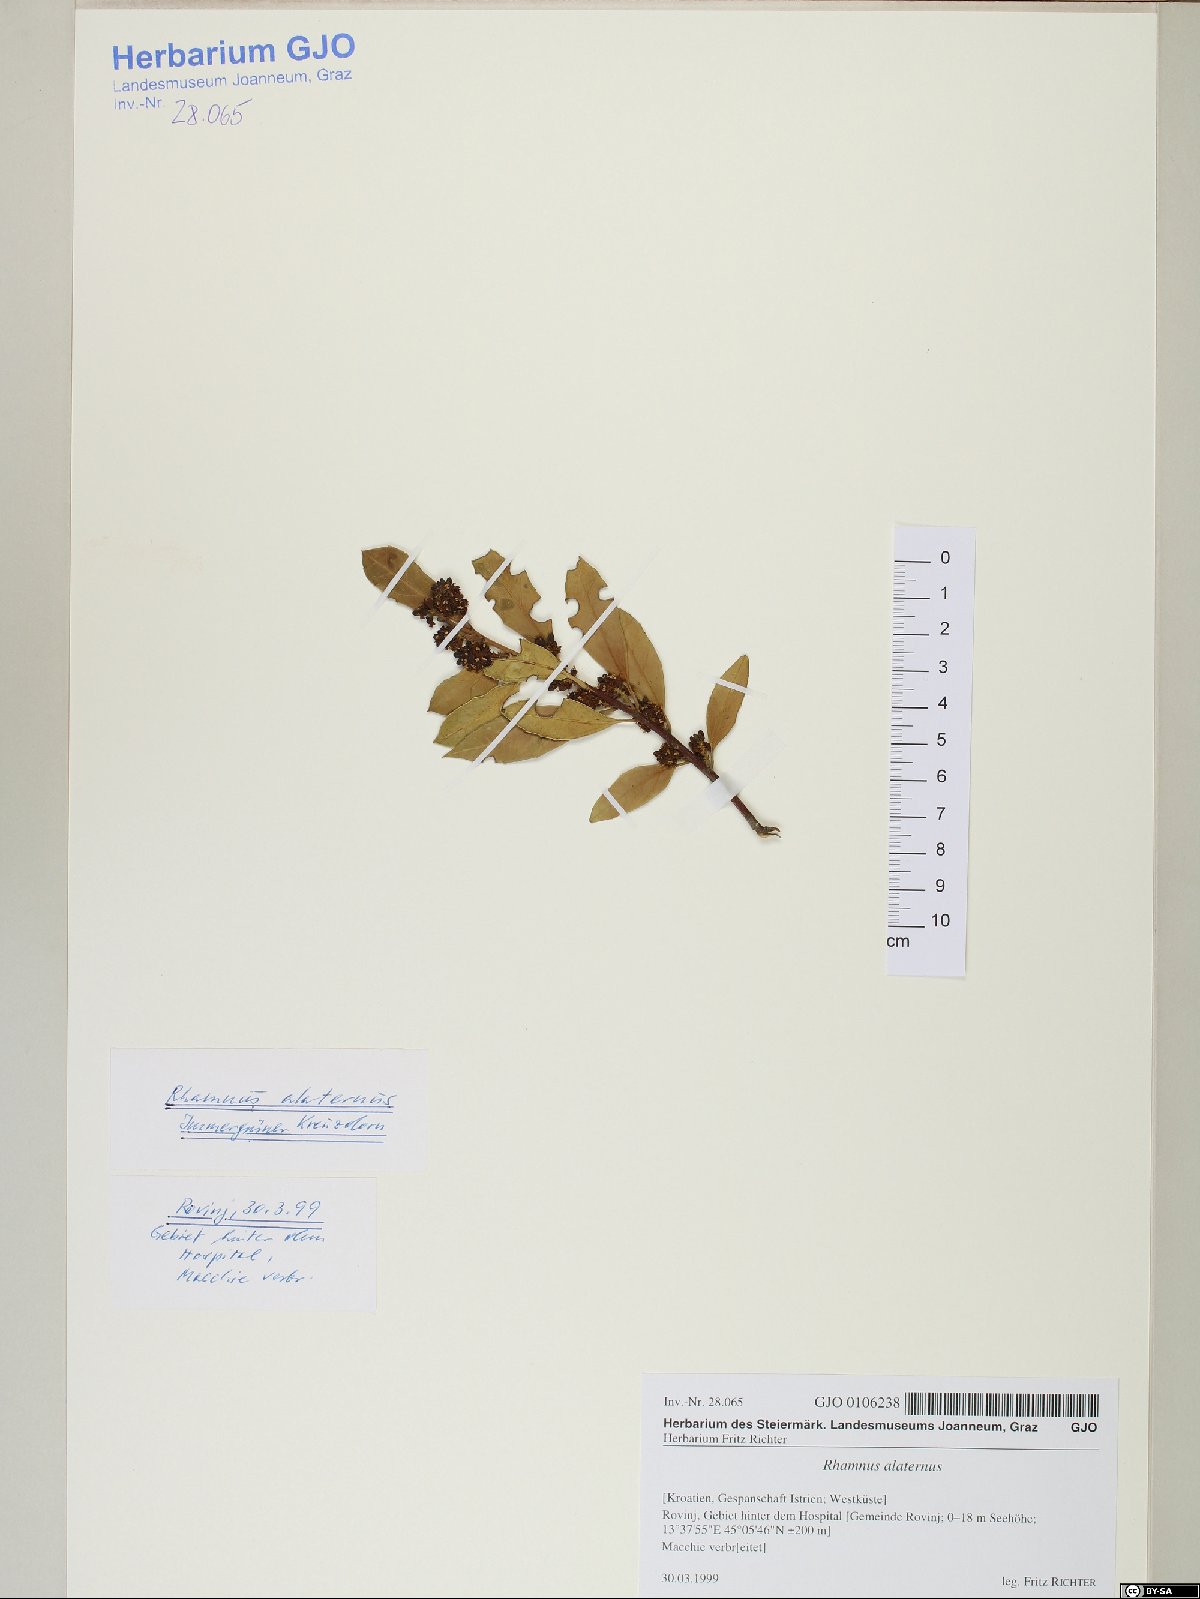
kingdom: Plantae
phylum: Tracheophyta
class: Magnoliopsida
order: Rosales
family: Rhamnaceae
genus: Rhamnus
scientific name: Rhamnus alaternus
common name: Mediterranean buckthorn
